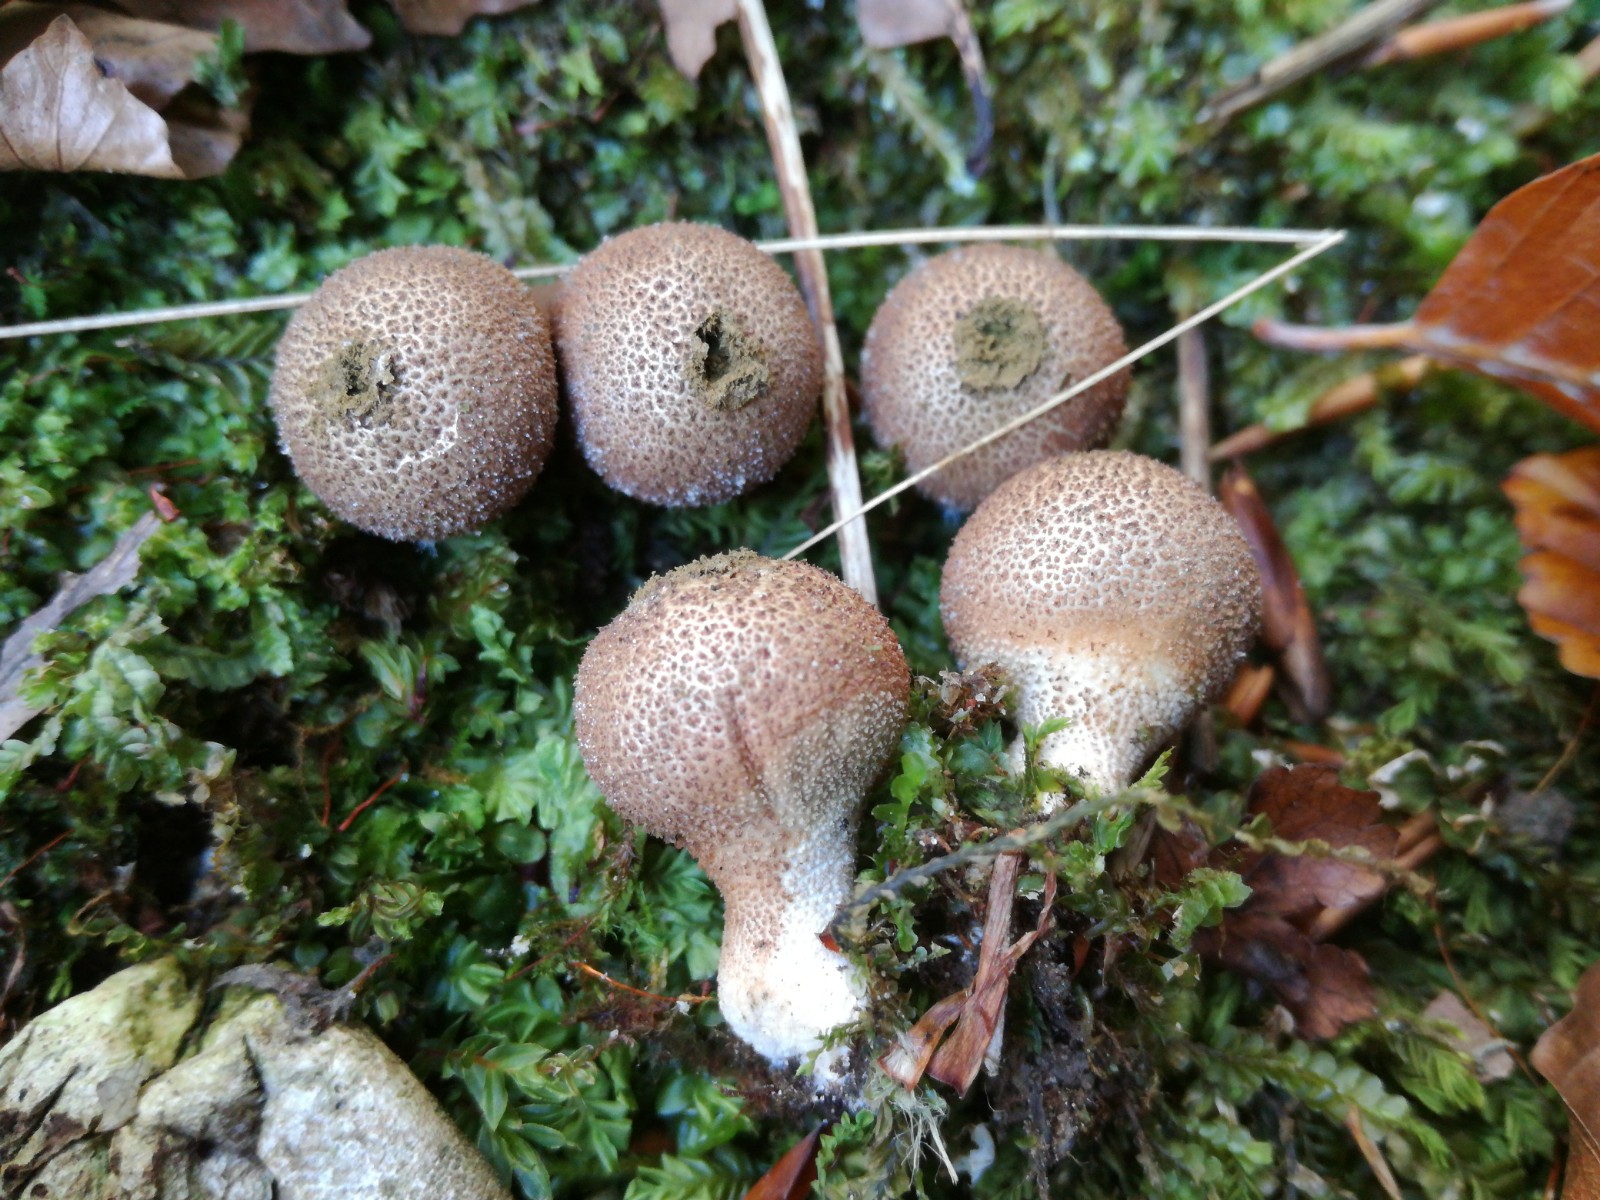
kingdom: Fungi
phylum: Basidiomycota
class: Agaricomycetes
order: Agaricales
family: Lycoperdaceae
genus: Apioperdon
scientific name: Apioperdon pyriforme
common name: pære-støvbold
